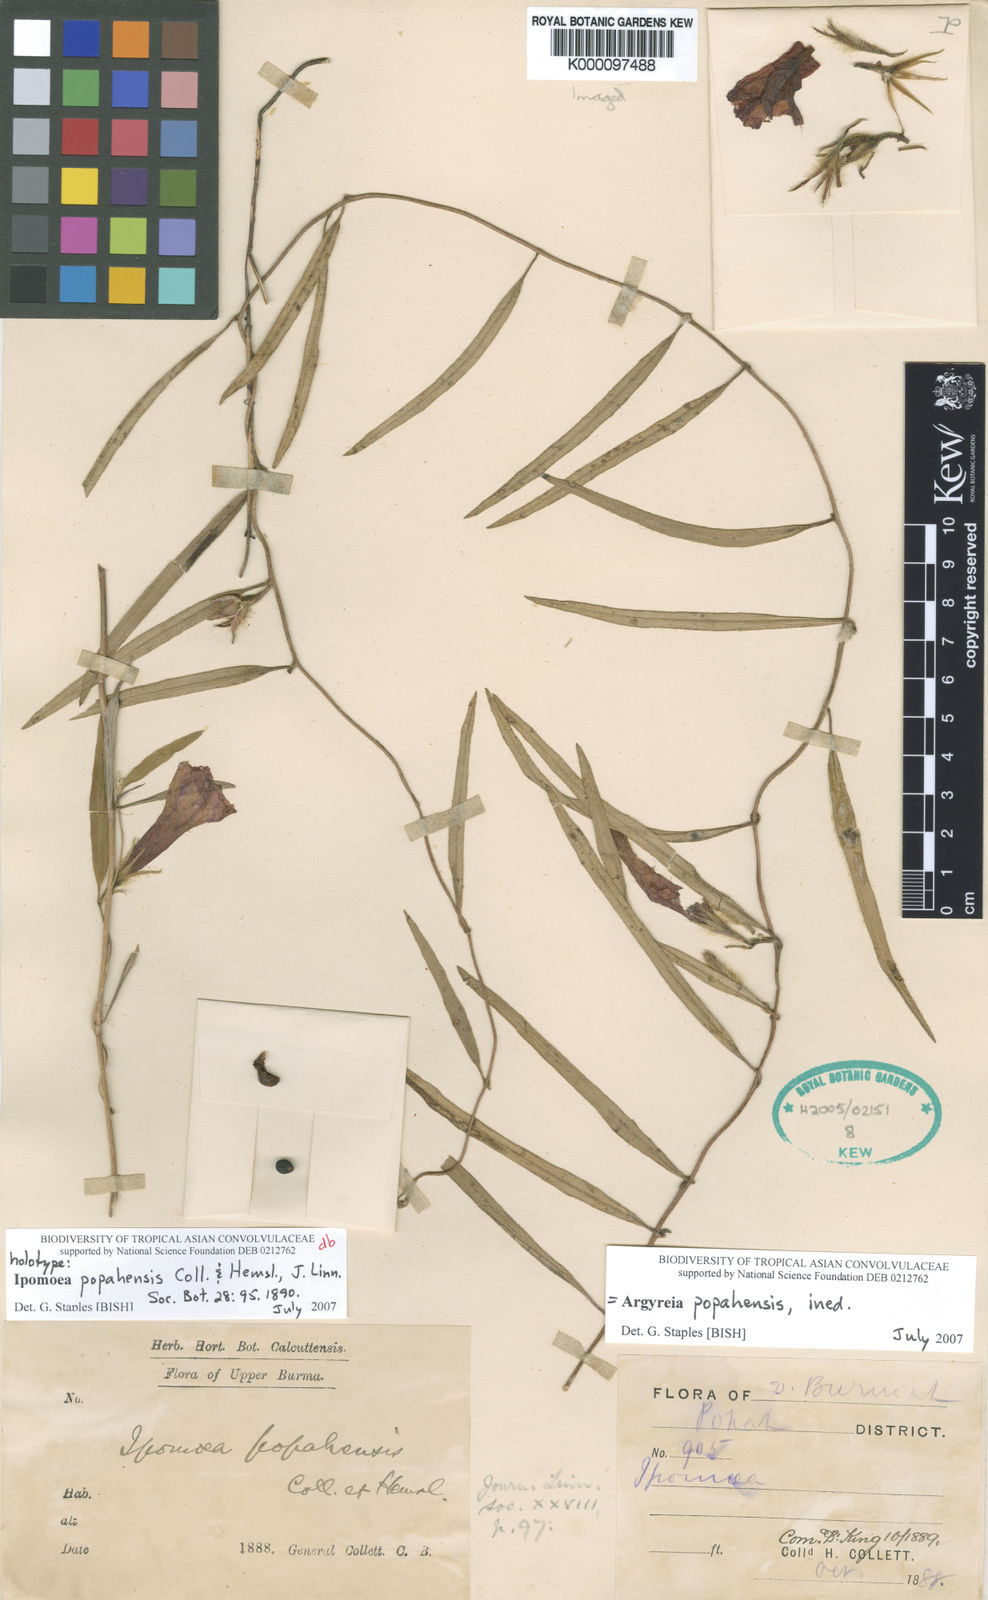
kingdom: Plantae
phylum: Tracheophyta
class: Magnoliopsida
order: Solanales
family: Convolvulaceae
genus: Argyreia
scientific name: Argyreia popahensis
